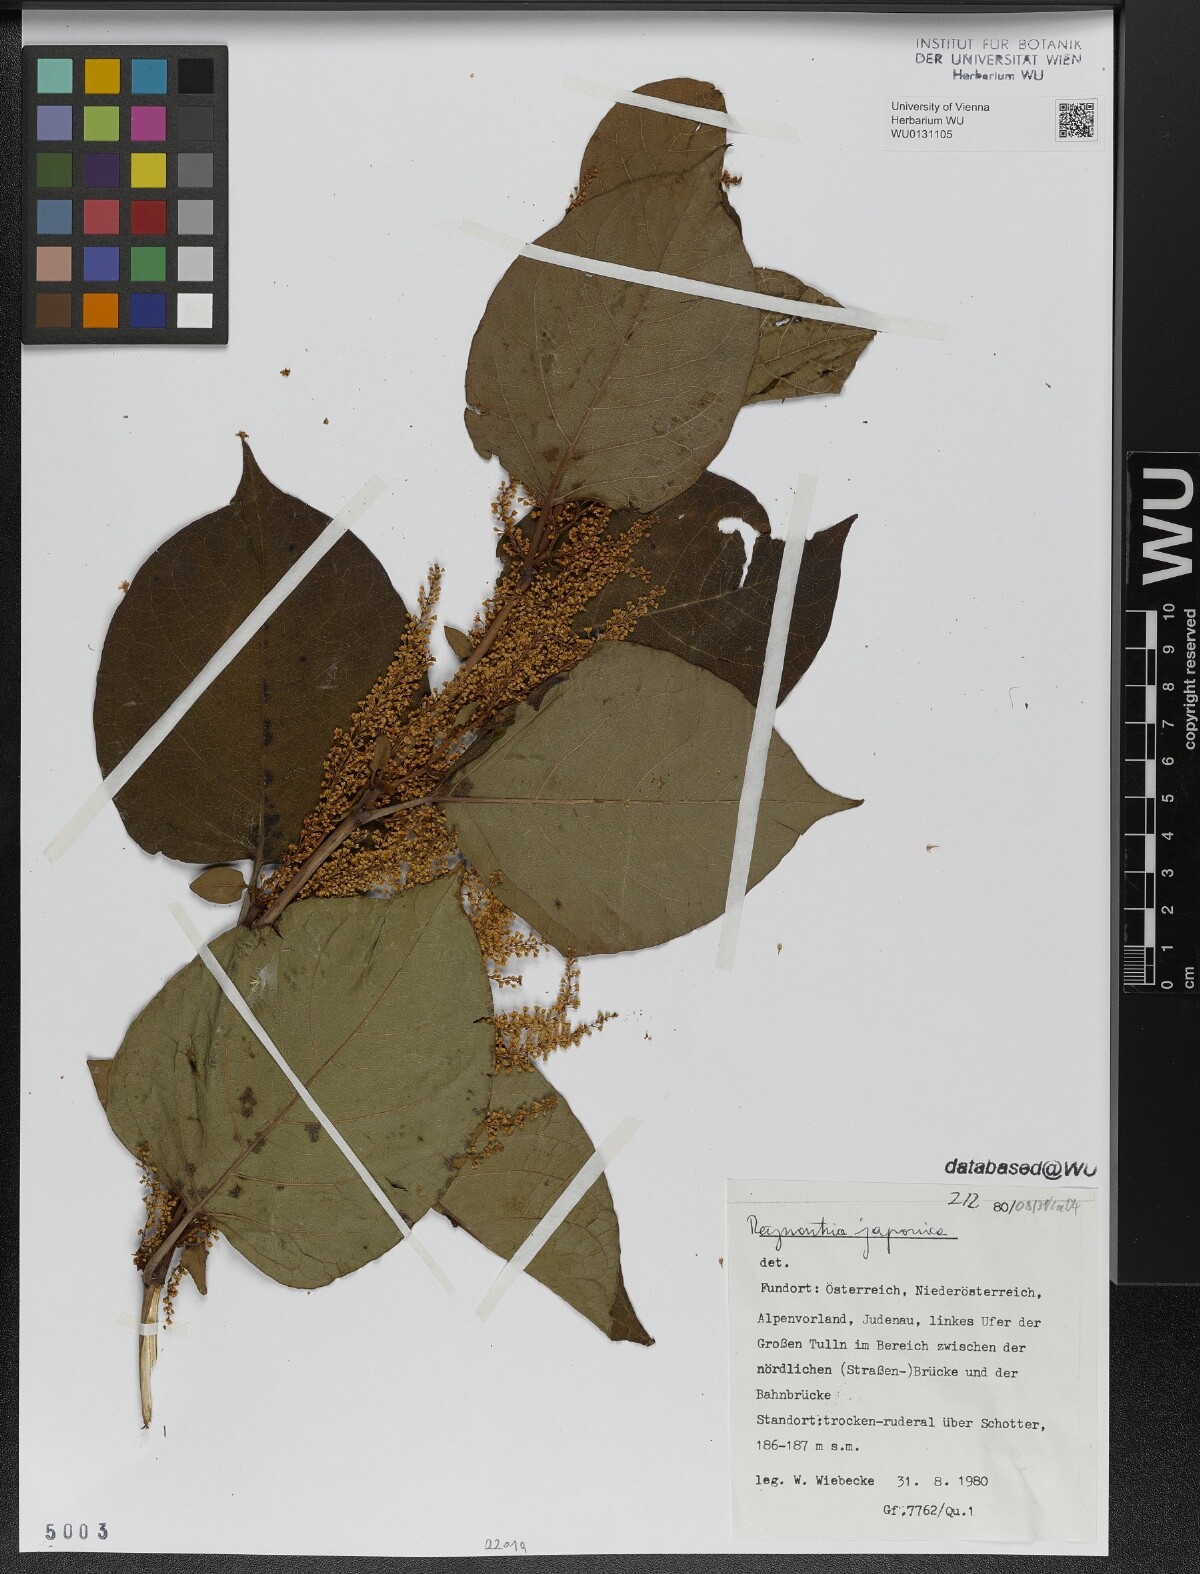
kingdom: Plantae
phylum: Tracheophyta
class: Magnoliopsida
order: Caryophyllales
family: Polygonaceae
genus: Reynoutria
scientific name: Reynoutria bohemica
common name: Bohemian knotweed
